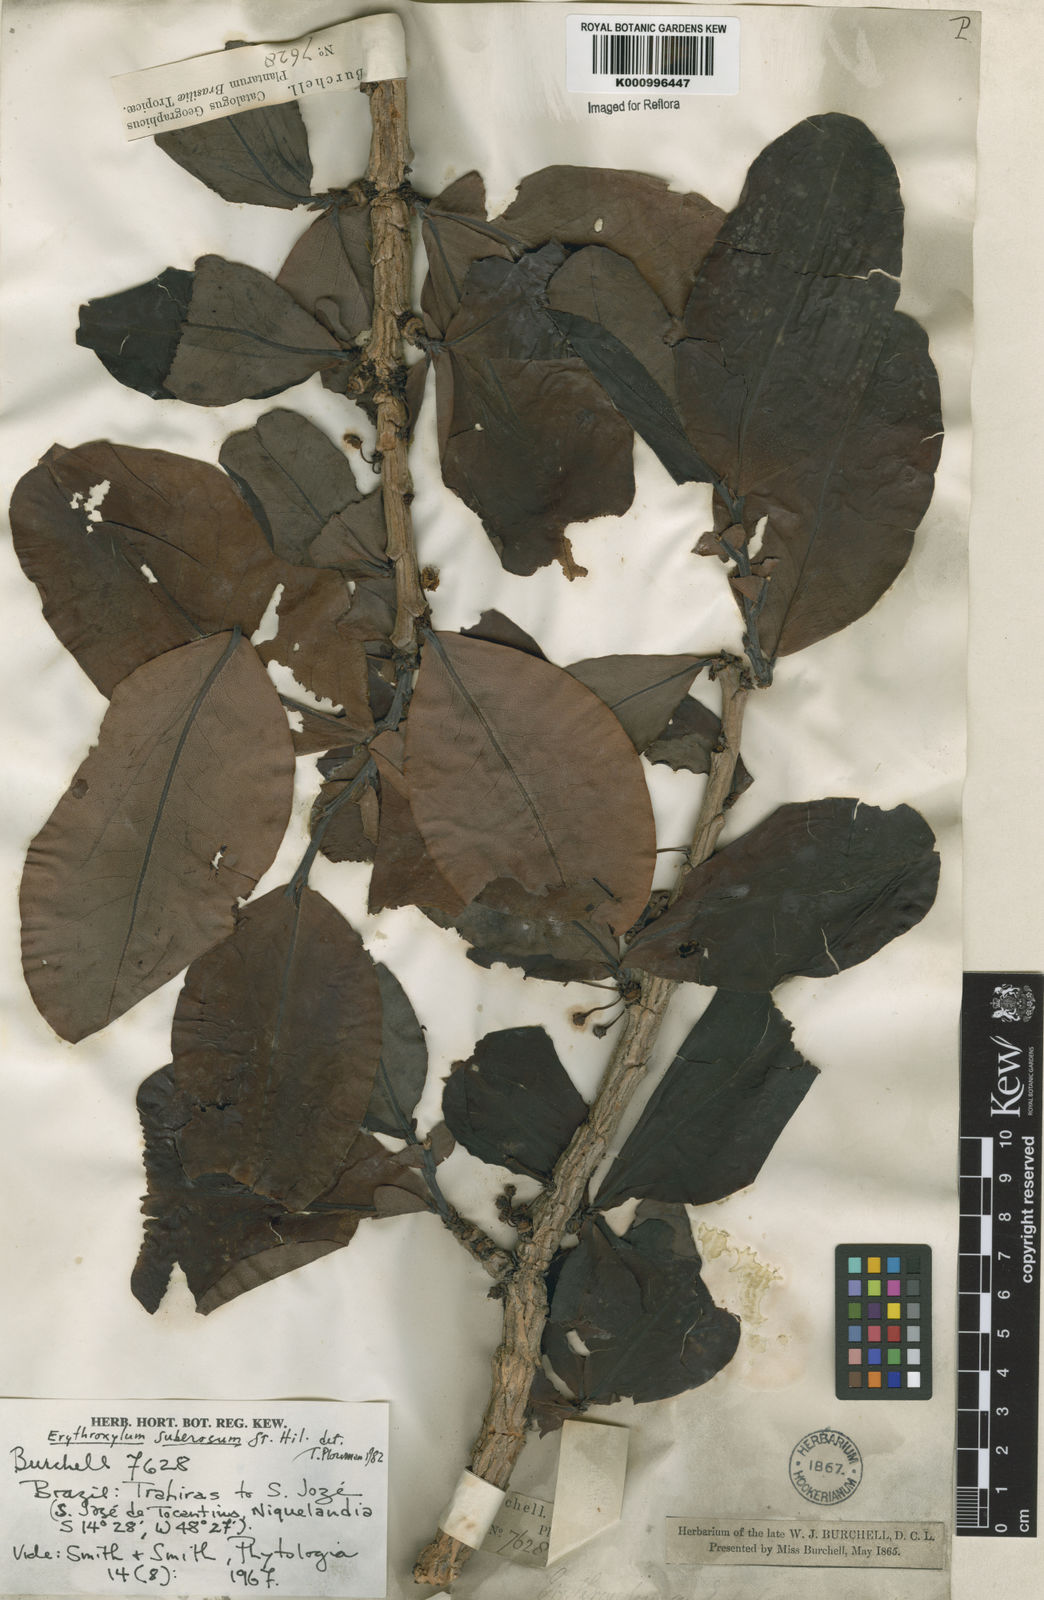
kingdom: Plantae
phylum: Tracheophyta
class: Magnoliopsida
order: Malpighiales
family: Erythroxylaceae
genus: Erythroxylum
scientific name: Erythroxylum suberosum
